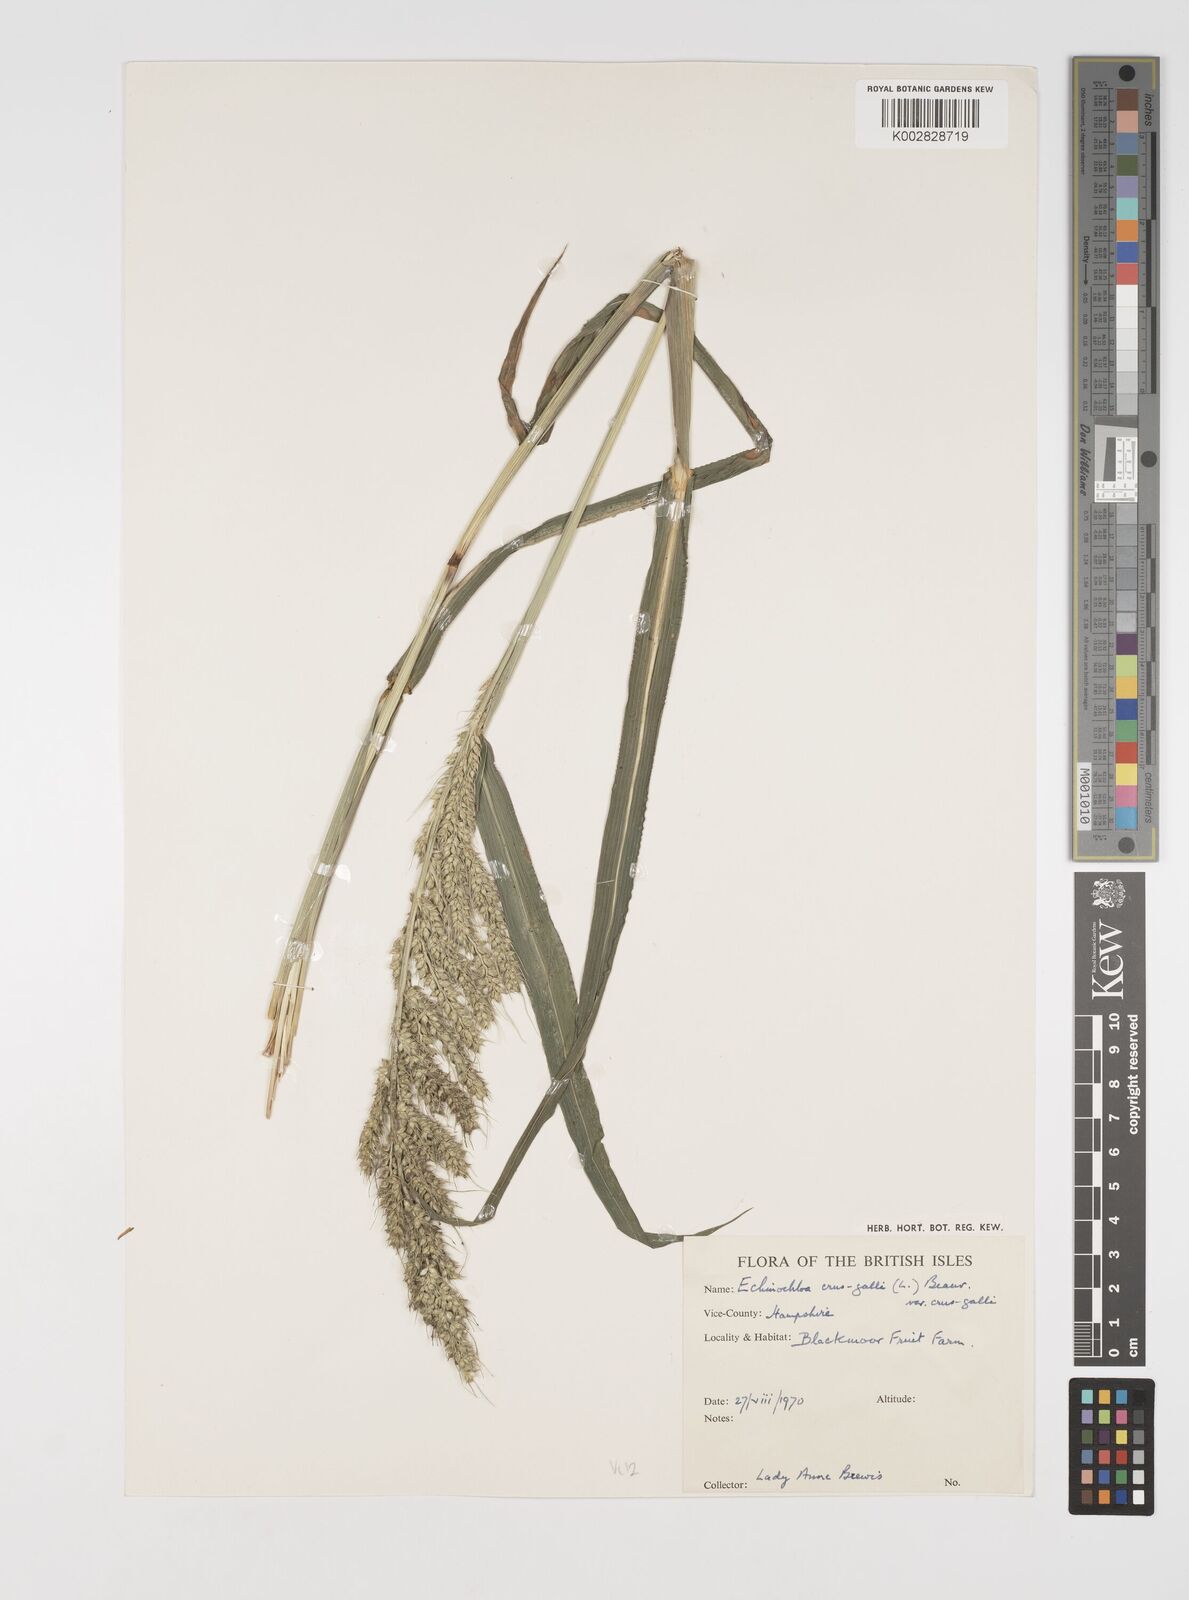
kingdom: Plantae
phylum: Tracheophyta
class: Liliopsida
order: Poales
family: Poaceae
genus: Echinochloa
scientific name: Echinochloa crus-galli
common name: Cockspur
